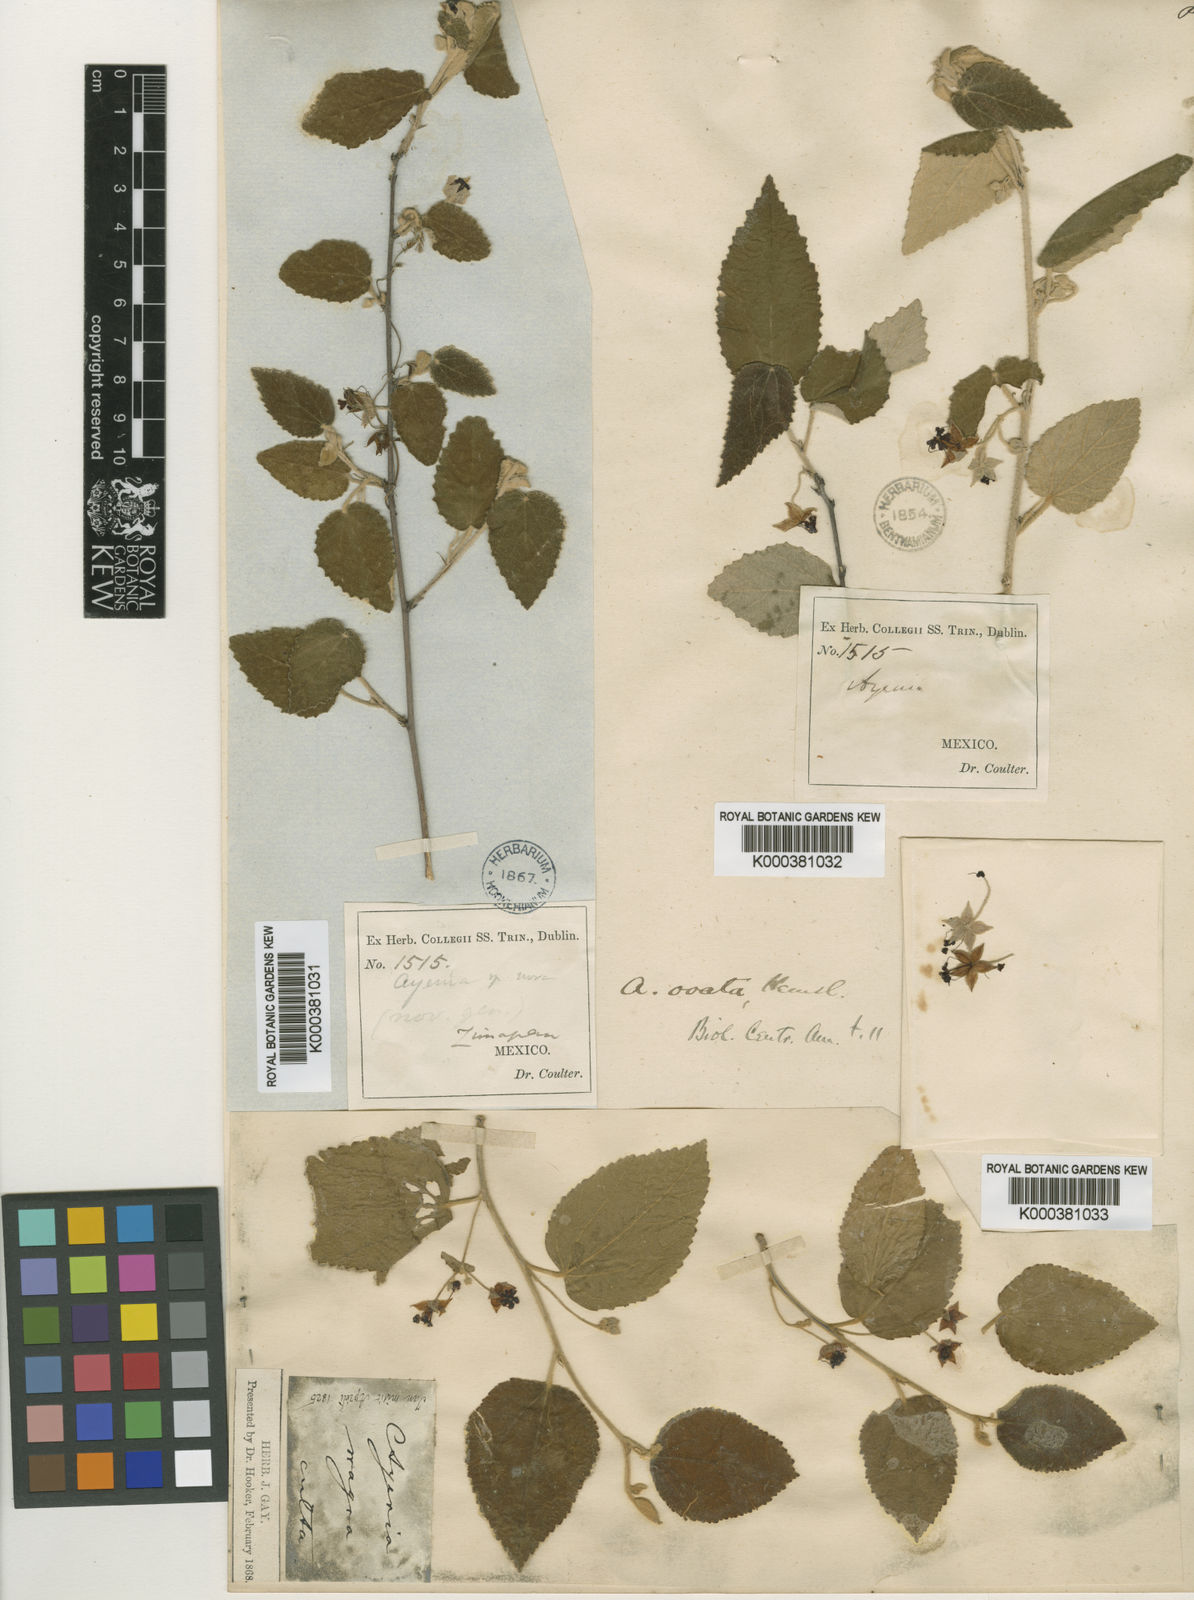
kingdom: Plantae
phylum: Tracheophyta
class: Magnoliopsida
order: Malvales
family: Malvaceae
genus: Ayenia
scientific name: Ayenia ovata
